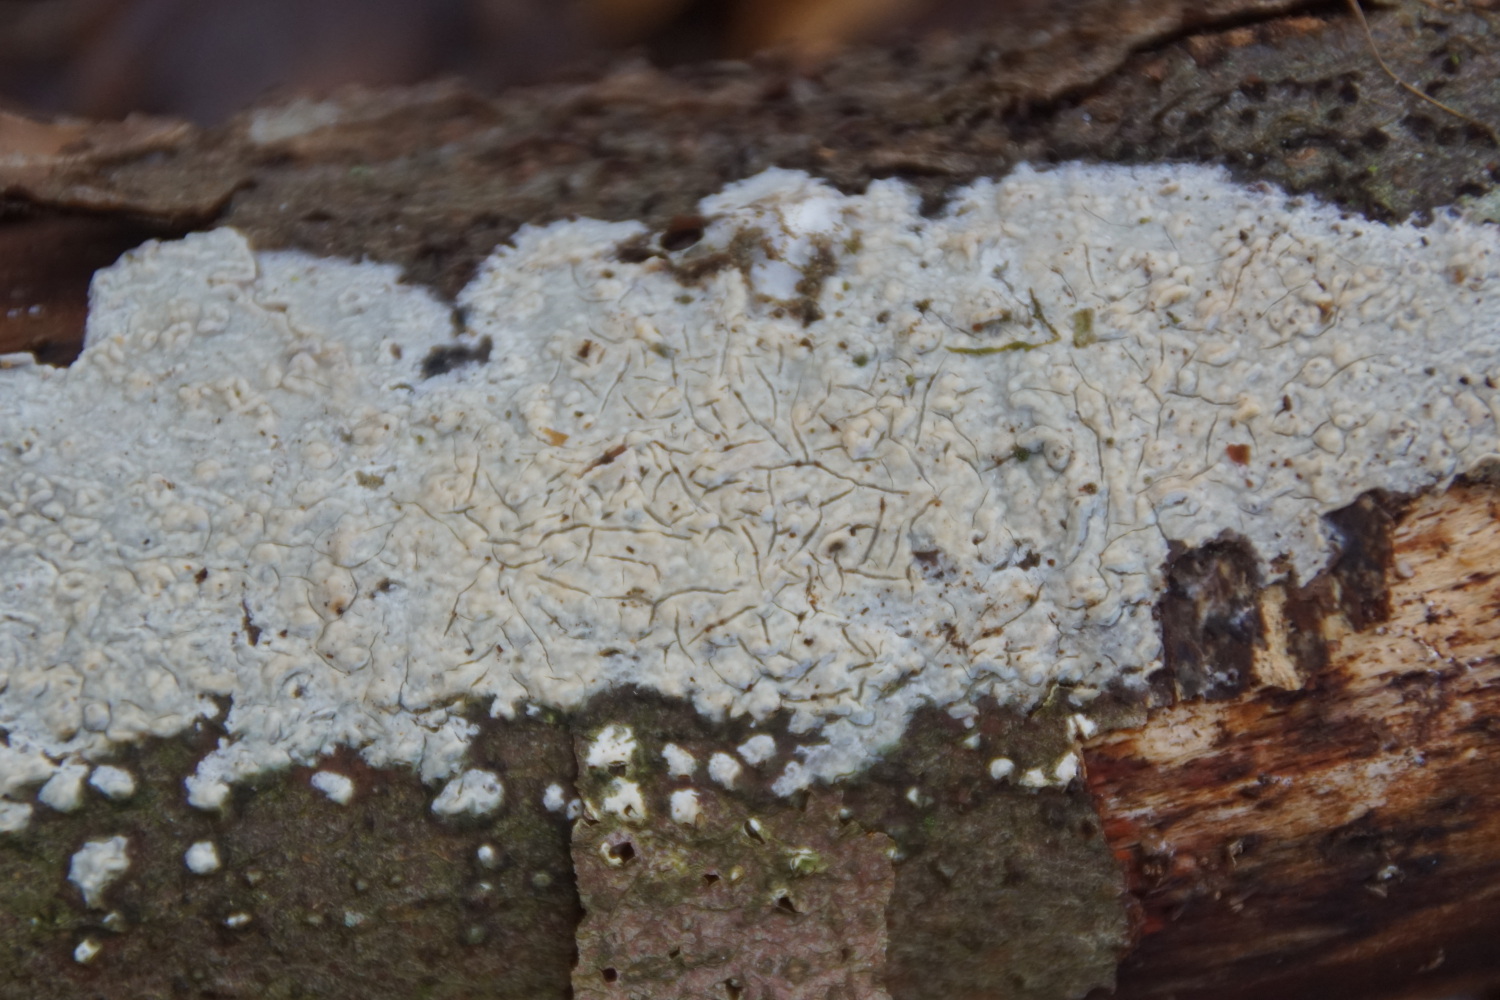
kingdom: Fungi
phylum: Basidiomycota
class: Agaricomycetes
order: Corticiales
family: Corticiaceae
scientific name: Corticiaceae
